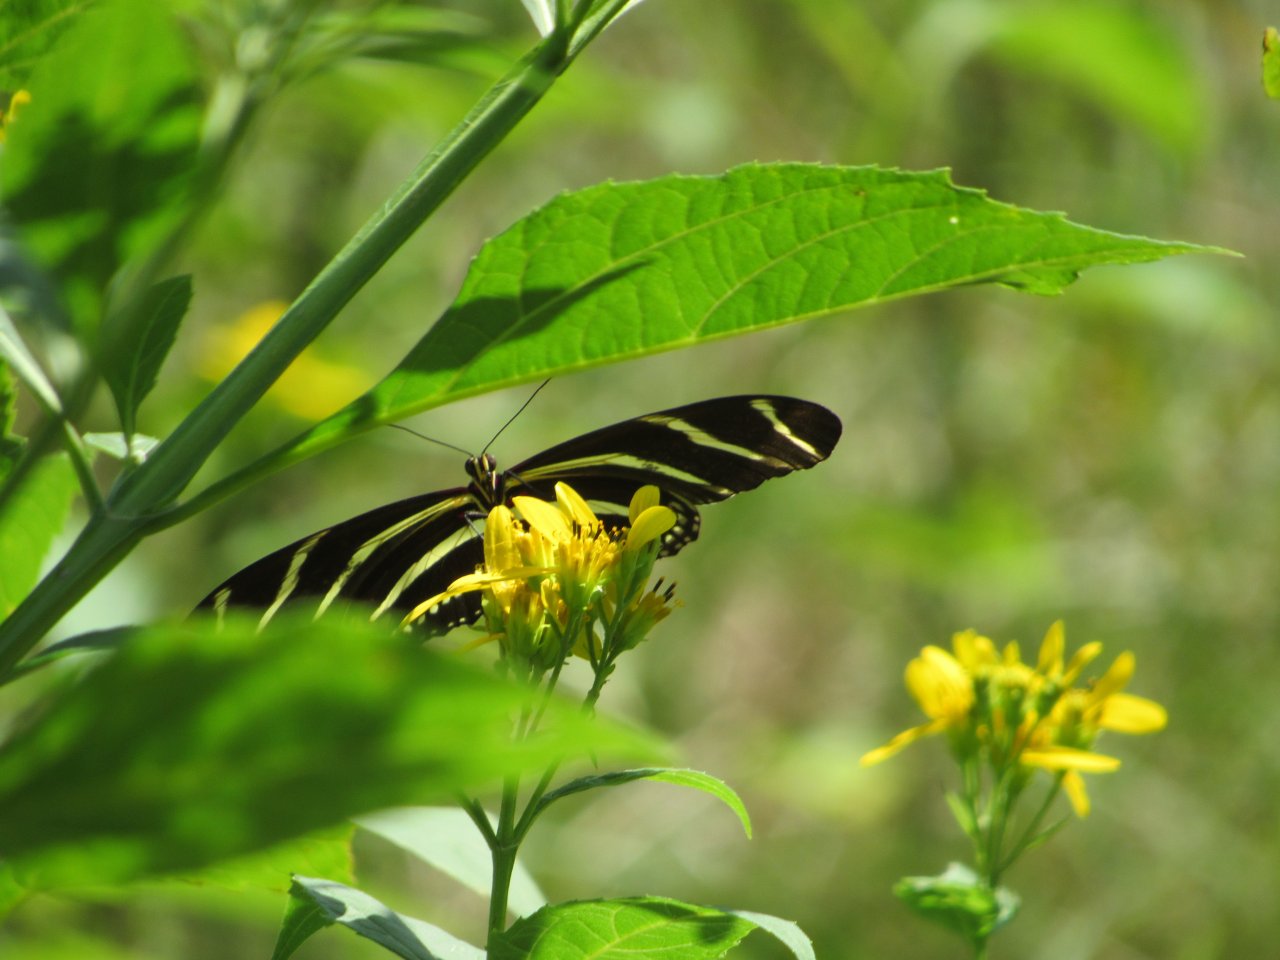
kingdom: Animalia
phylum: Arthropoda
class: Insecta
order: Lepidoptera
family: Nymphalidae
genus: Heliconius
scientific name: Heliconius charithonia
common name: Zebra Longwing
